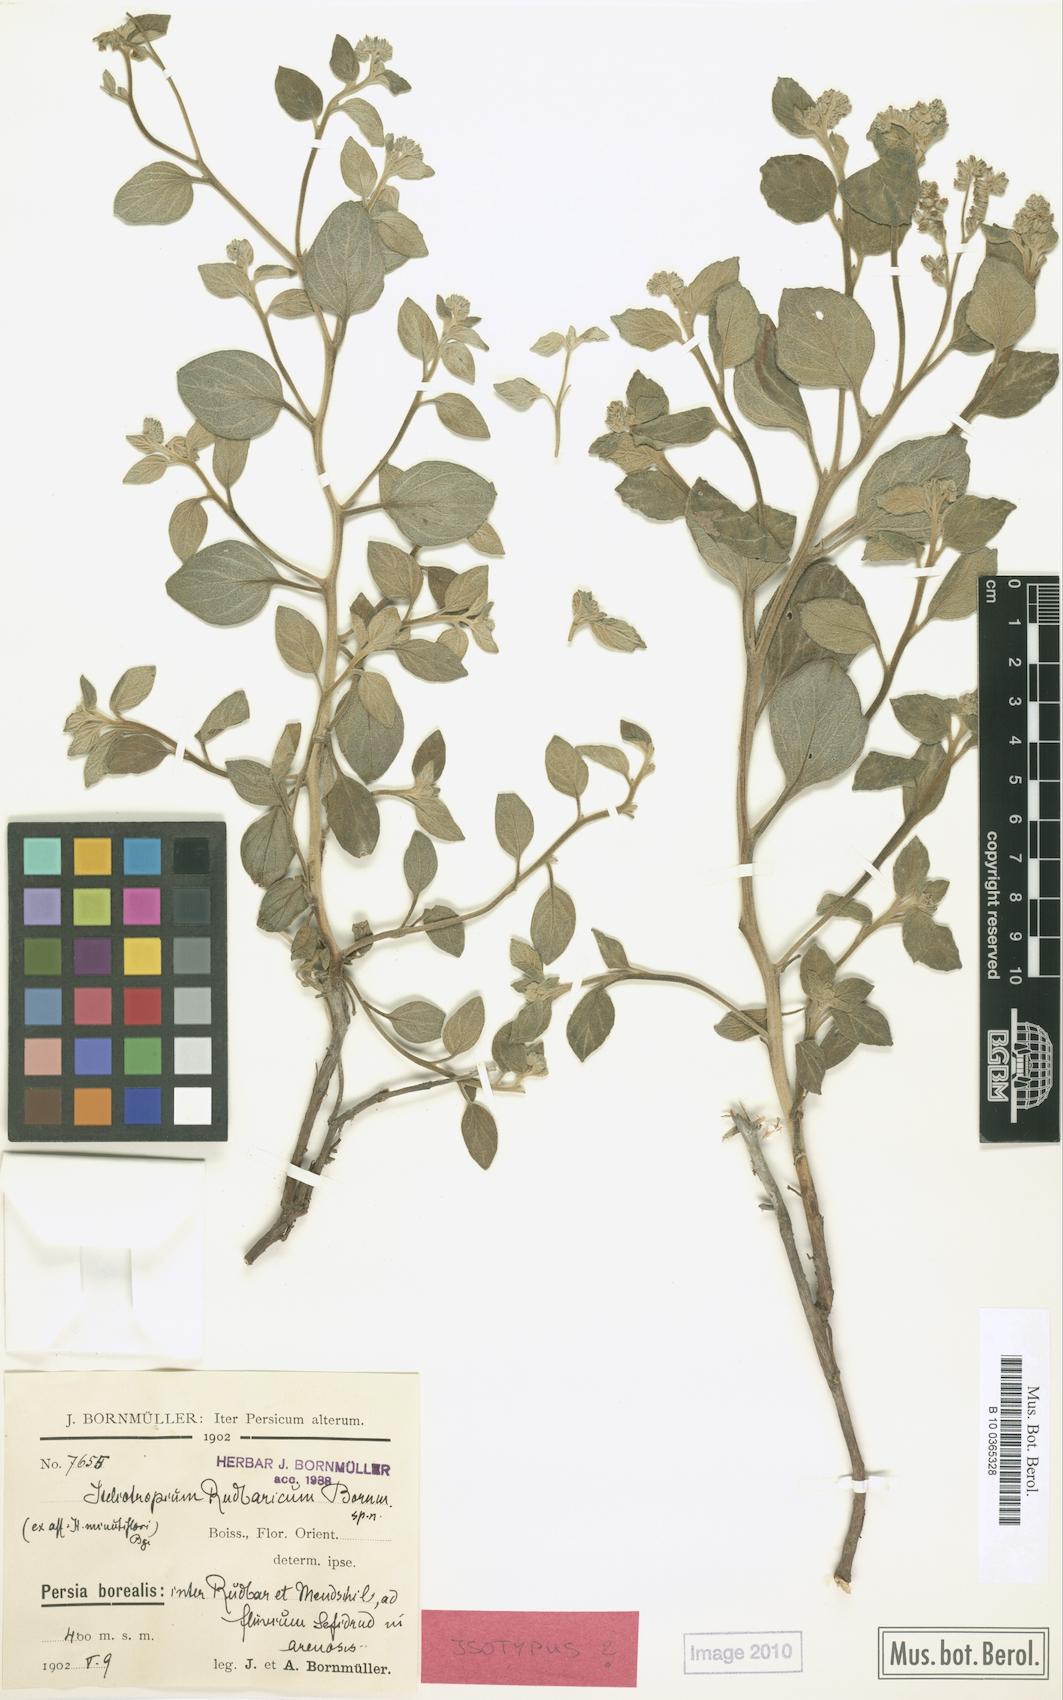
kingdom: Plantae
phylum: Tracheophyta
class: Magnoliopsida
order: Boraginales
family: Heliotropiaceae
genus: Heliotropium
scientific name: Heliotropium rudbaricum
